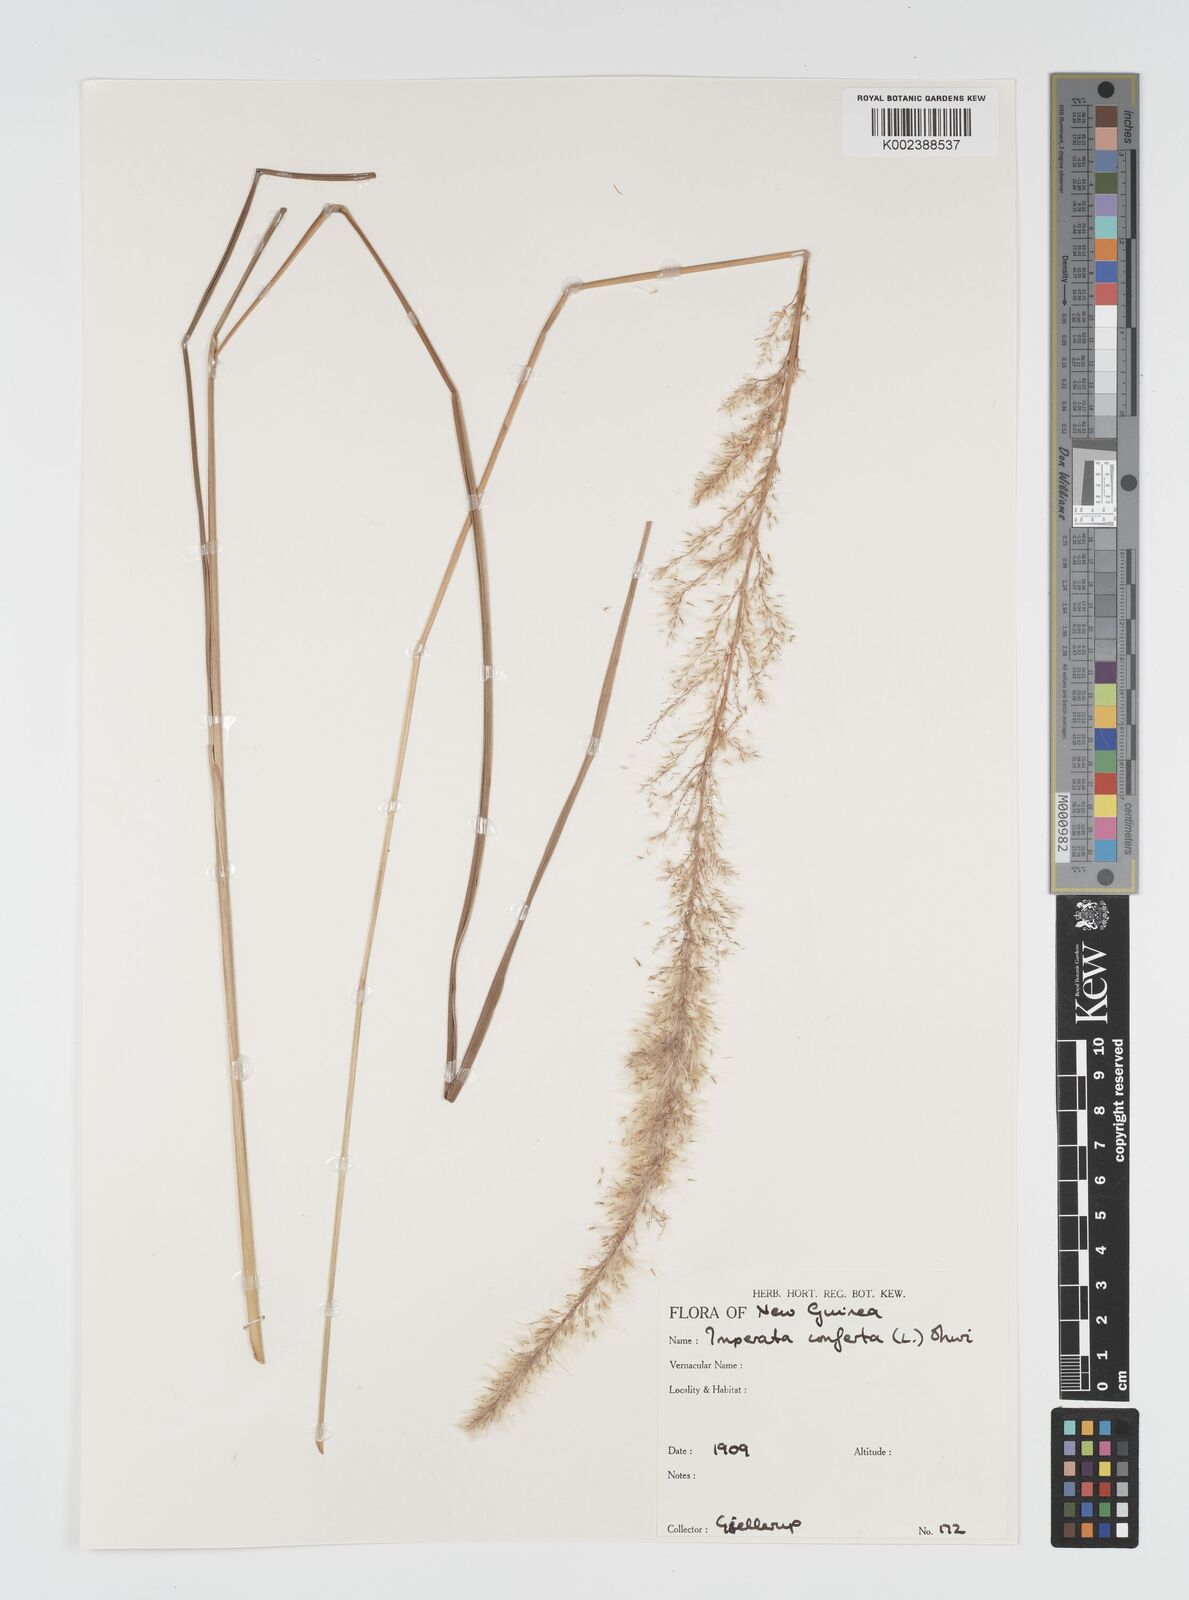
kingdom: Plantae
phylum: Tracheophyta
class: Liliopsida
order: Poales
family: Poaceae
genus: Imperata
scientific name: Imperata conferta
